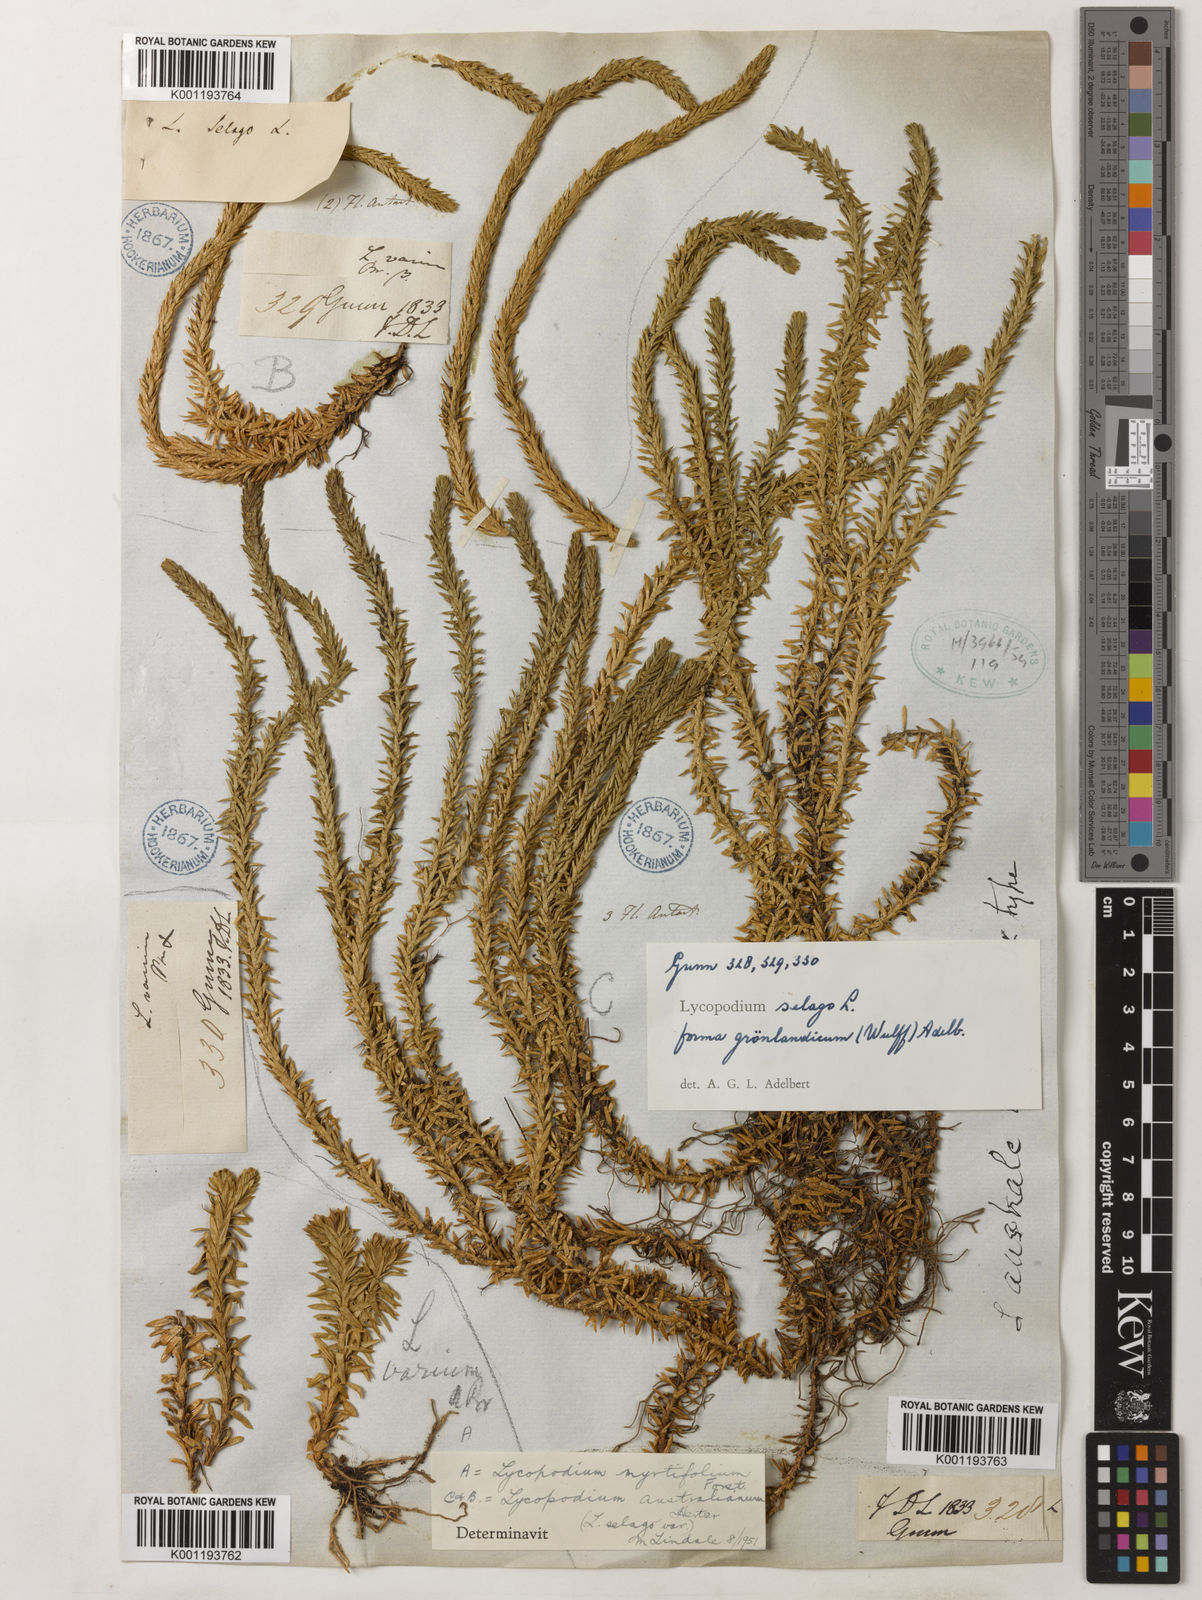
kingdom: Plantae
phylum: Tracheophyta
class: Lycopodiopsida
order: Lycopodiales
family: Lycopodiaceae
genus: Huperzia
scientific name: Huperzia australiana
